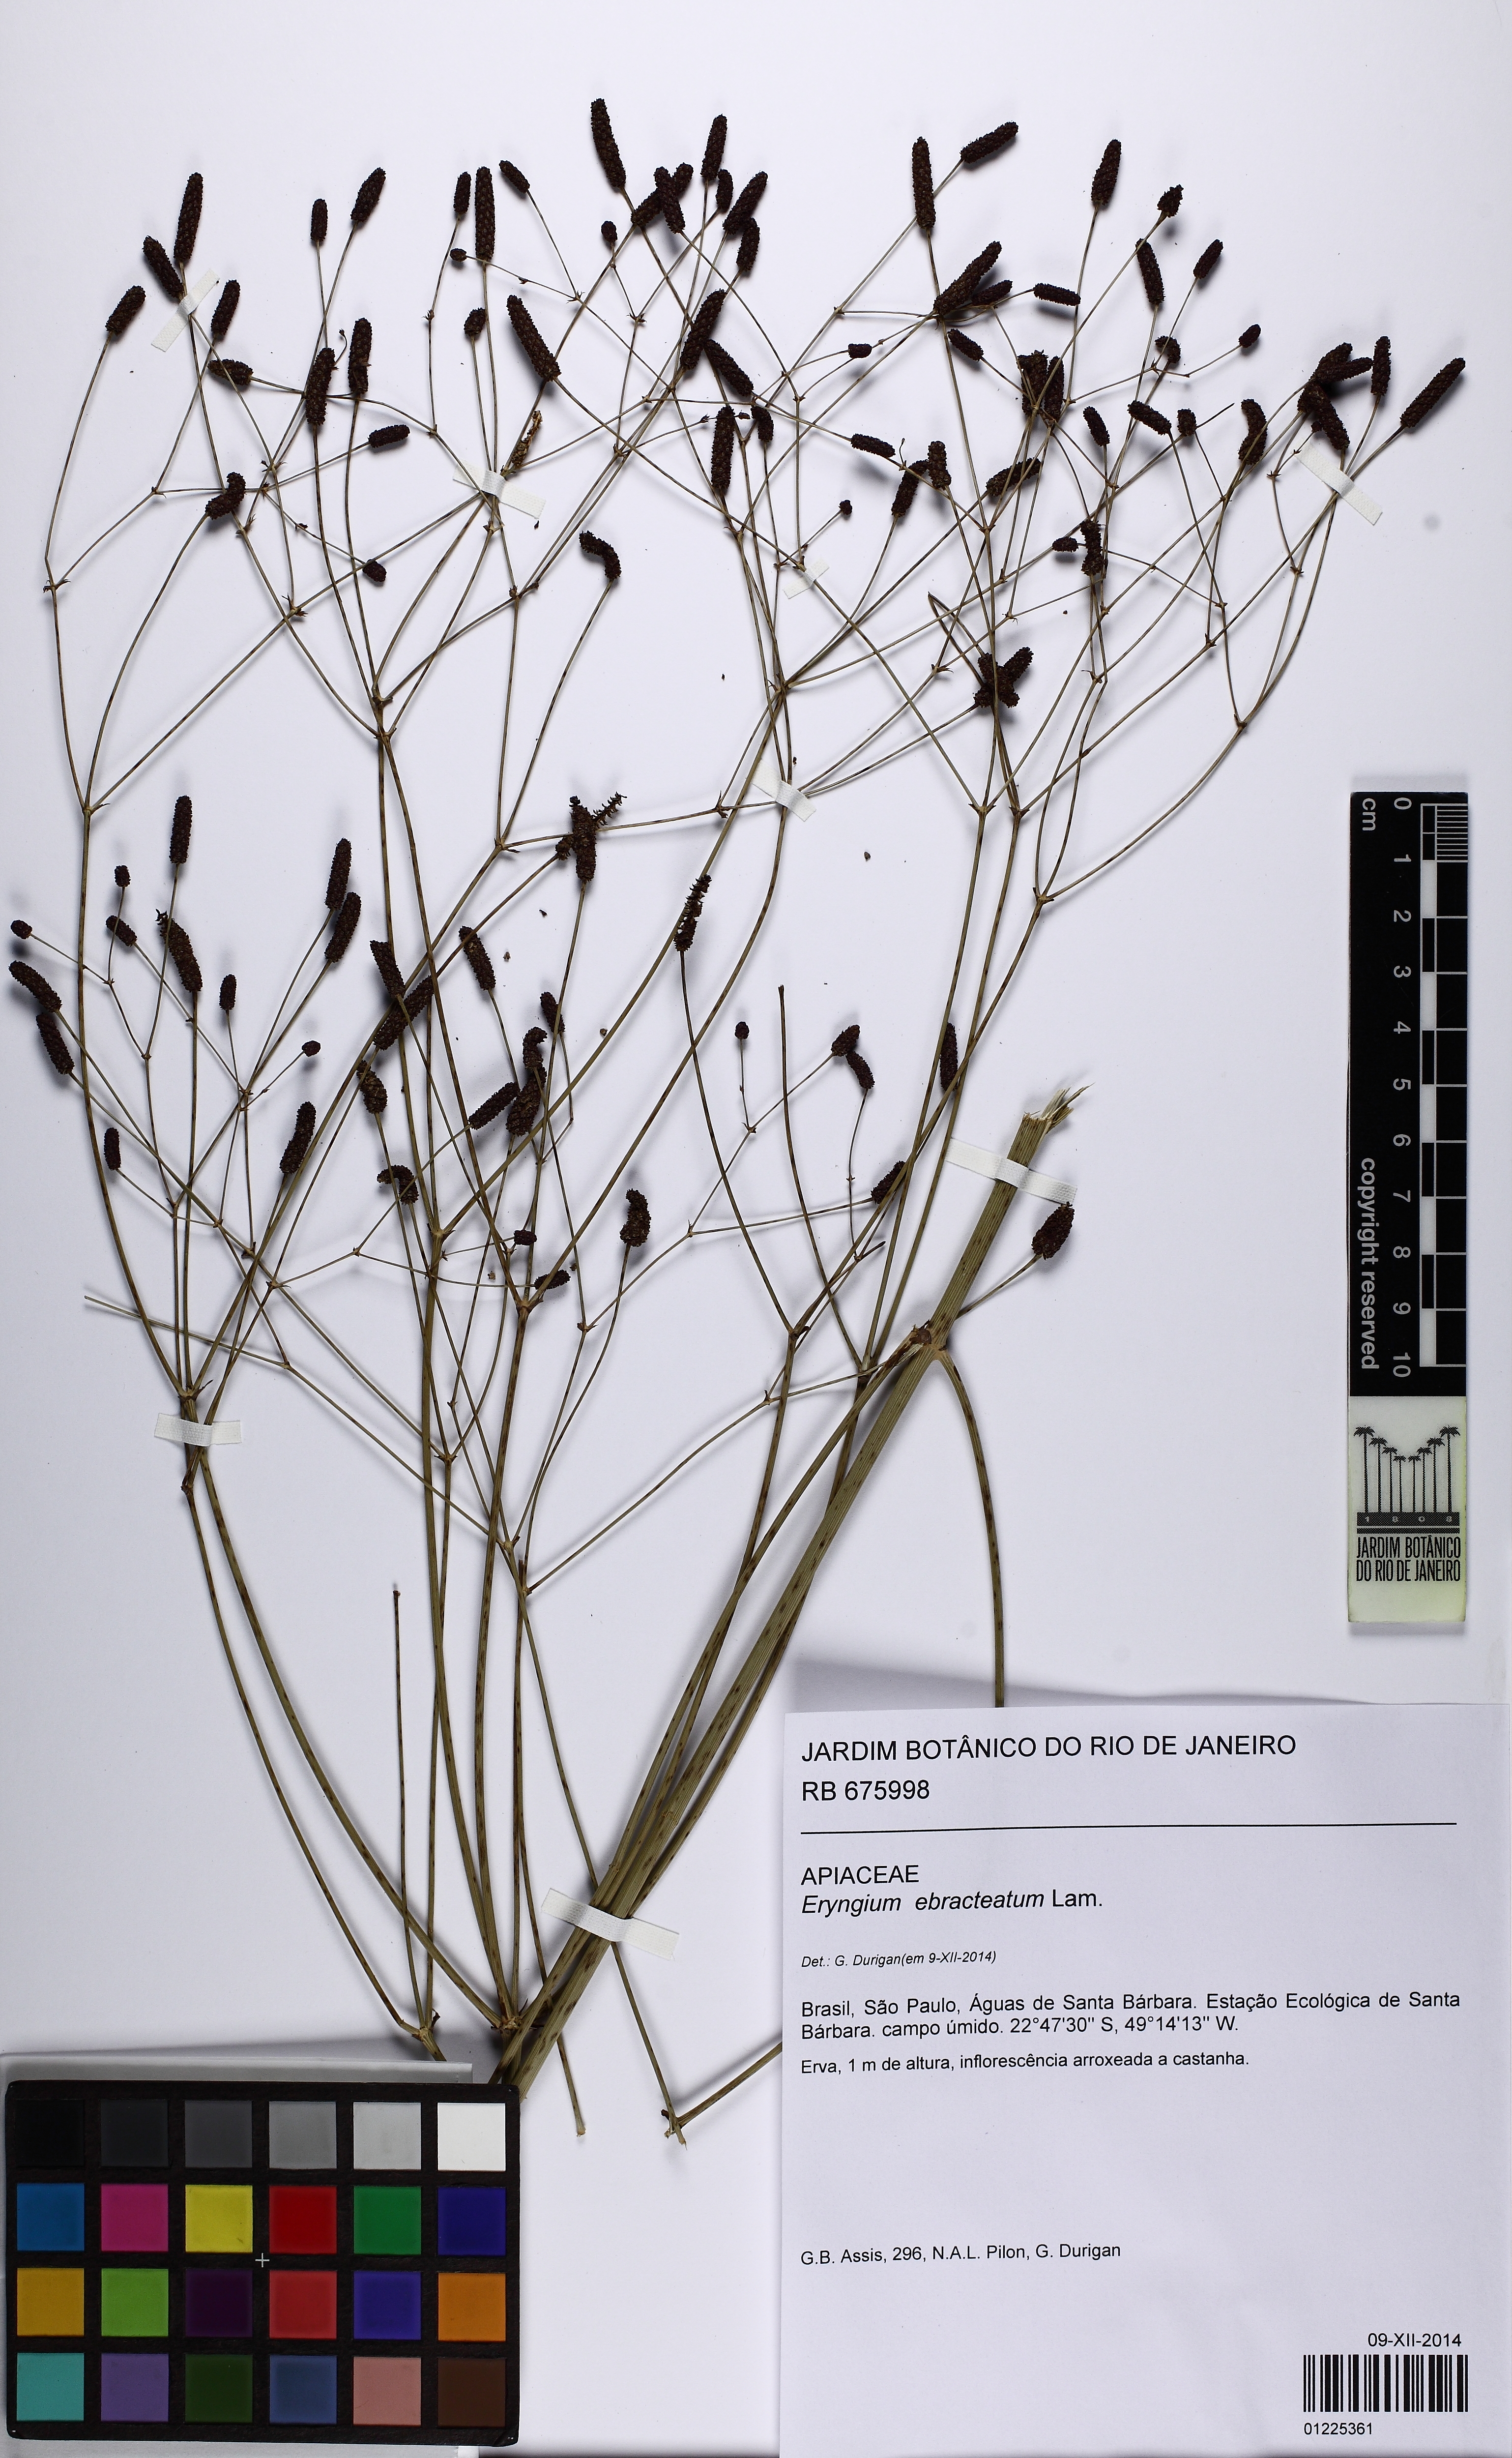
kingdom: Plantae
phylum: Tracheophyta
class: Magnoliopsida
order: Apiales
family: Apiaceae
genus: Eryngium
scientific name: Eryngium ebracteatum
